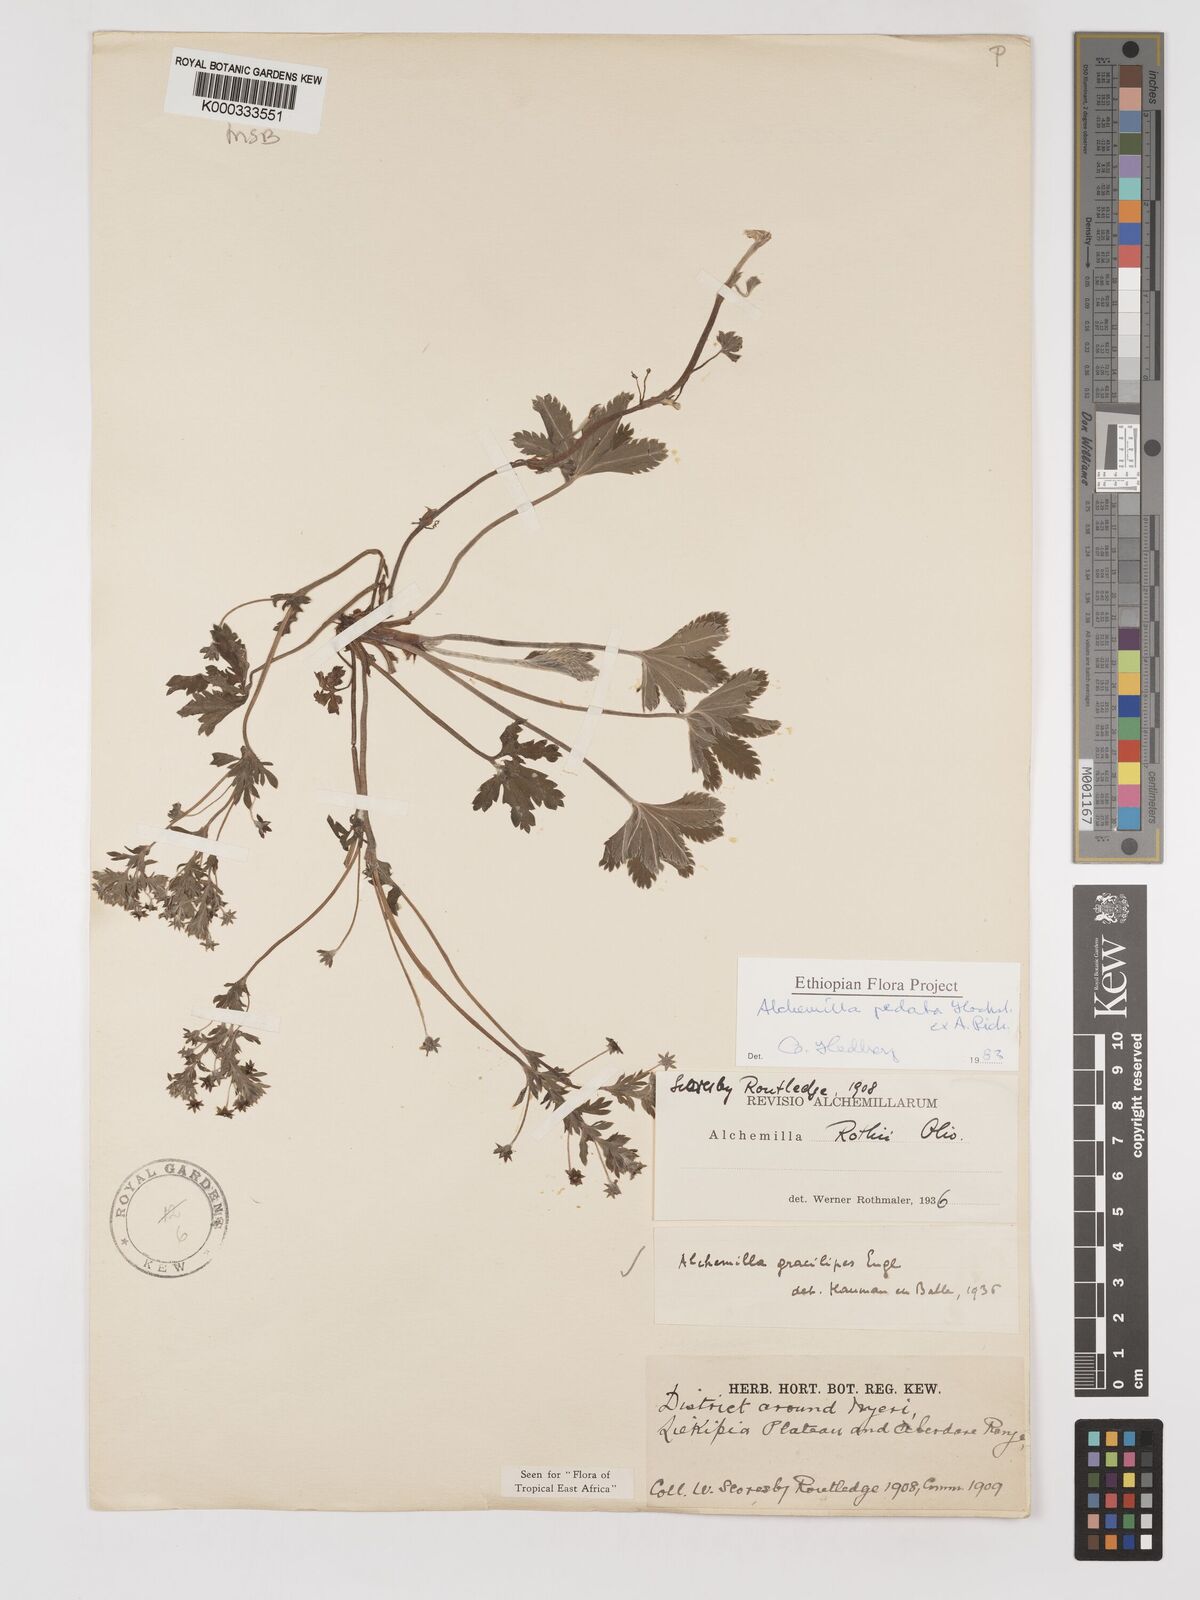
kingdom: Plantae
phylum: Tracheophyta
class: Magnoliopsida
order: Rosales
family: Rosaceae
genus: Alchemilla
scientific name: Alchemilla pedata
